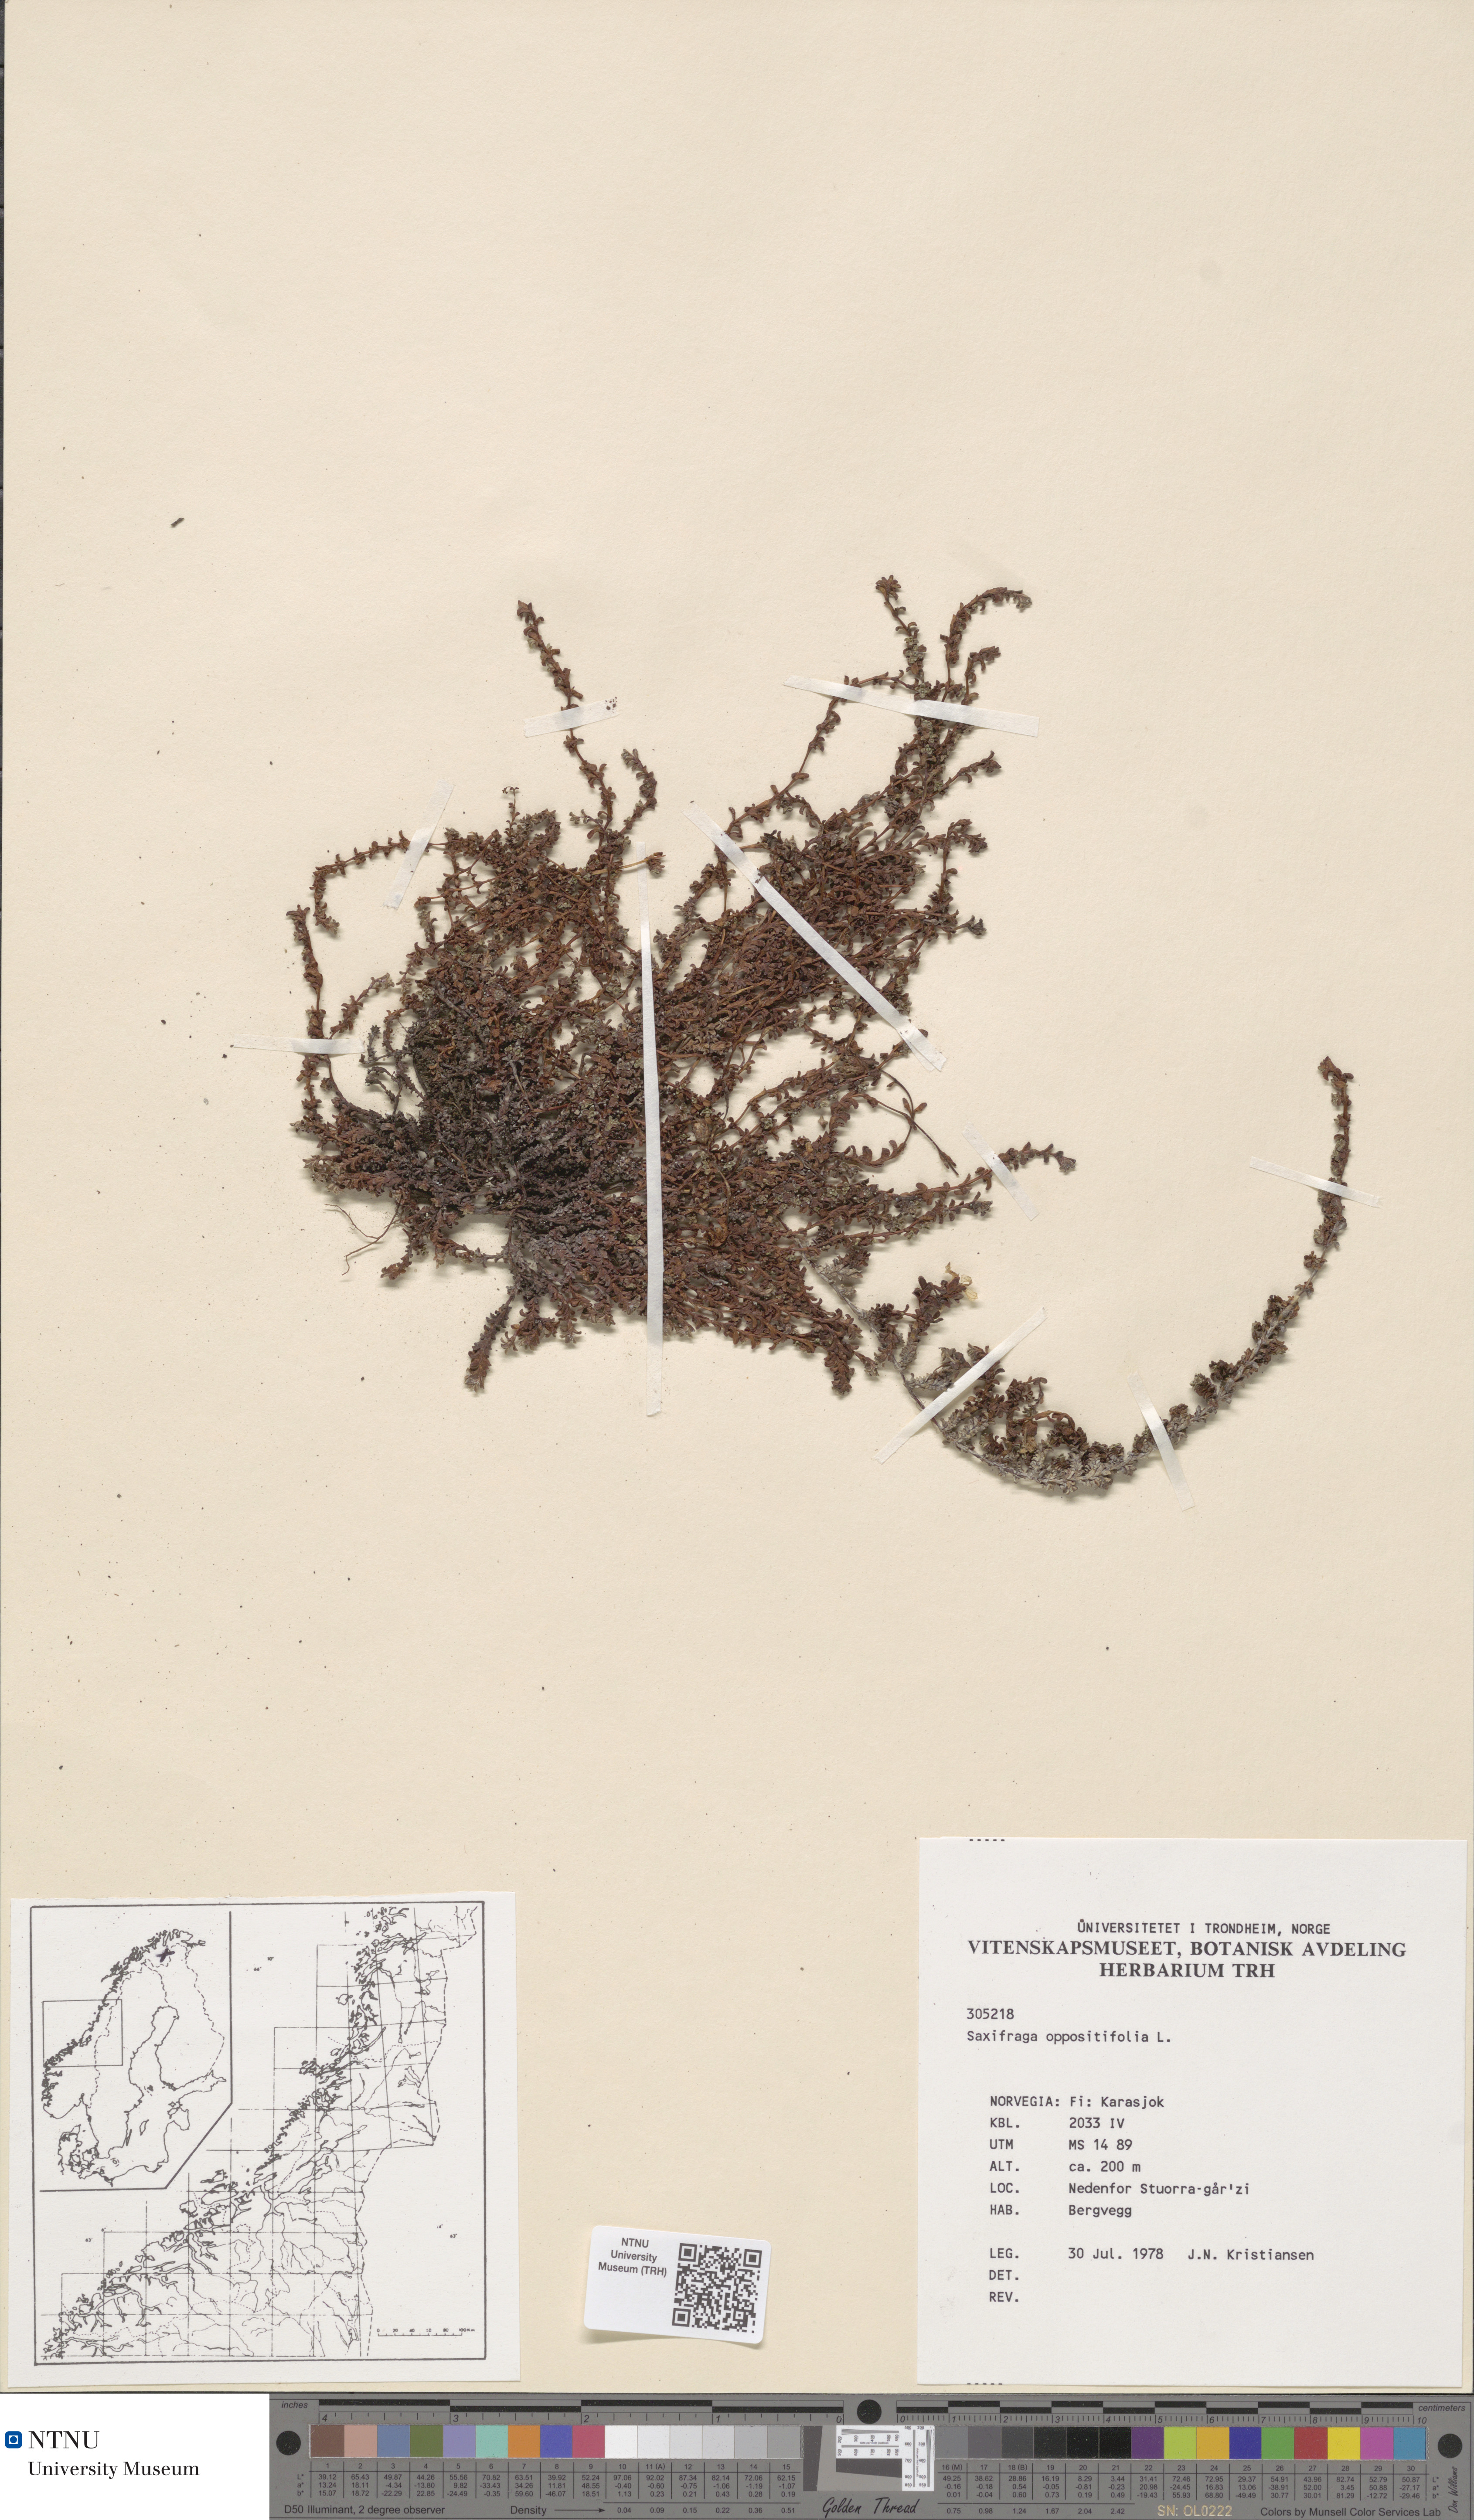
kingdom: Plantae
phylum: Tracheophyta
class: Magnoliopsida
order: Saxifragales
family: Saxifragaceae
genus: Saxifraga
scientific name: Saxifraga oppositifolia
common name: Purple saxifrage
